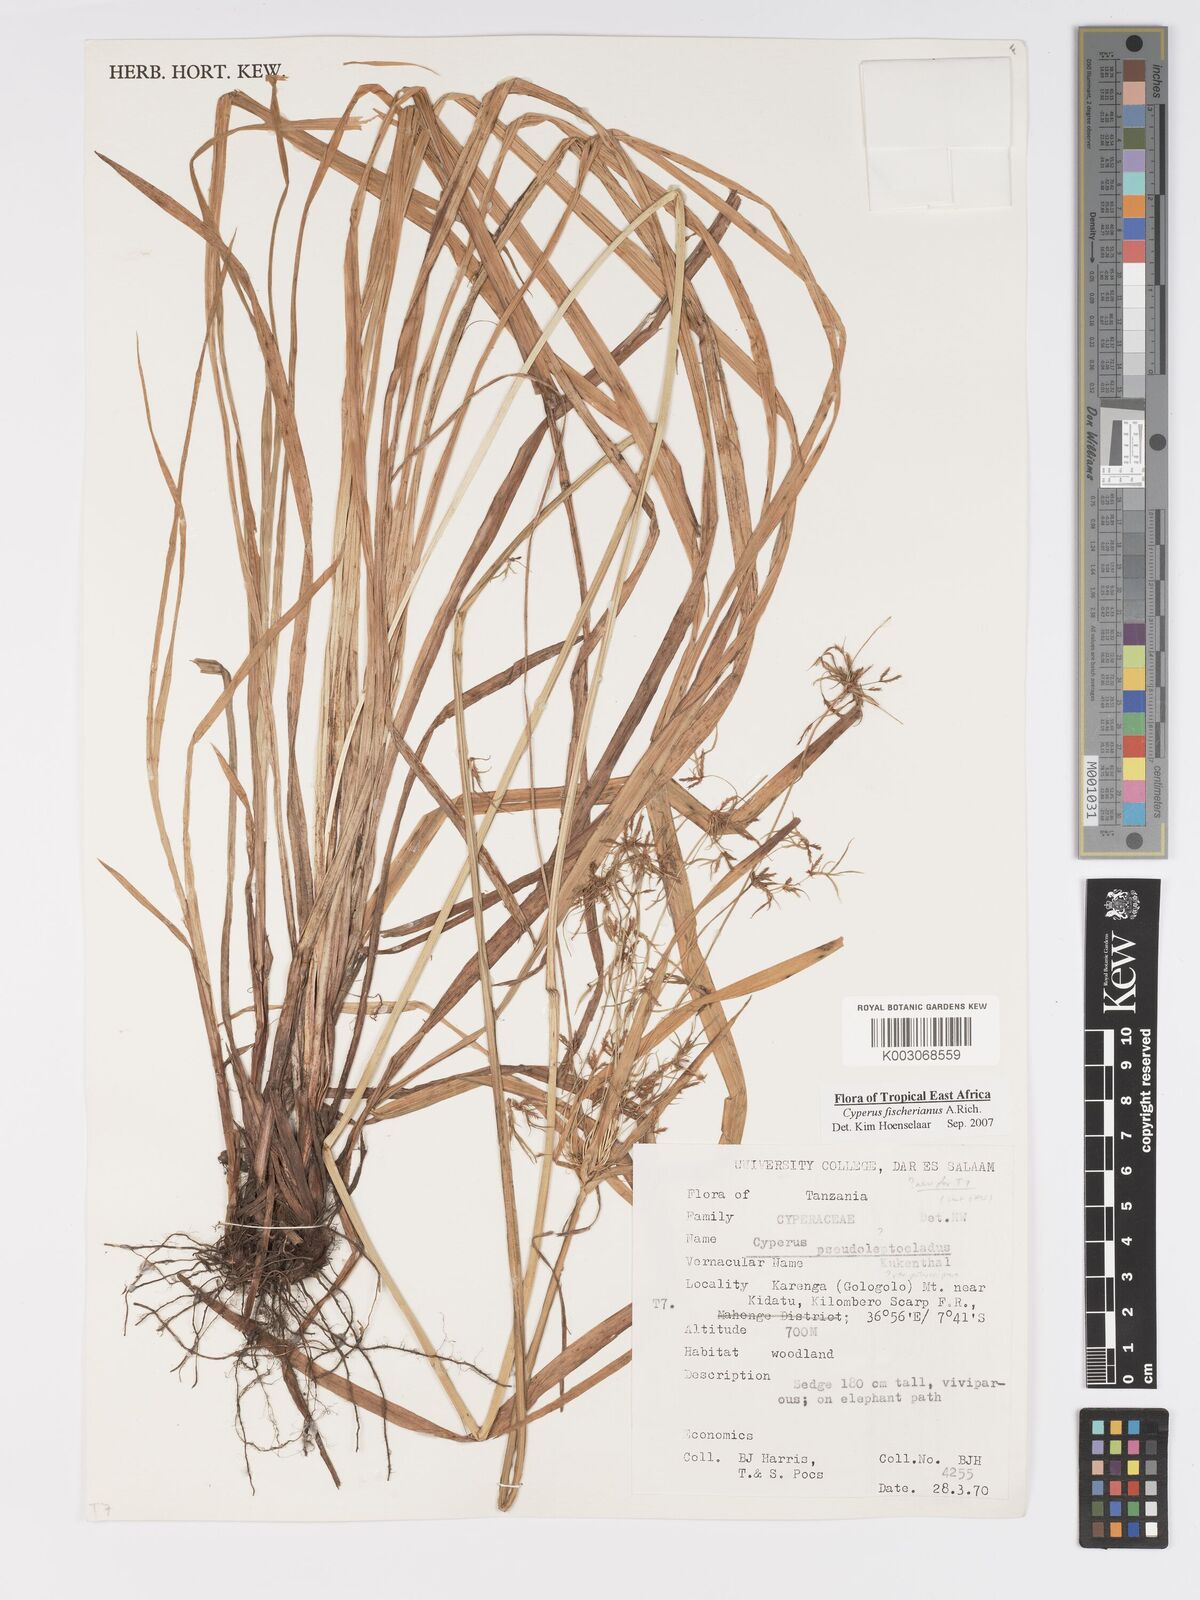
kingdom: Plantae
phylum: Tracheophyta
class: Liliopsida
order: Poales
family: Cyperaceae
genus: Cyperus
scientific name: Cyperus fischerianus
